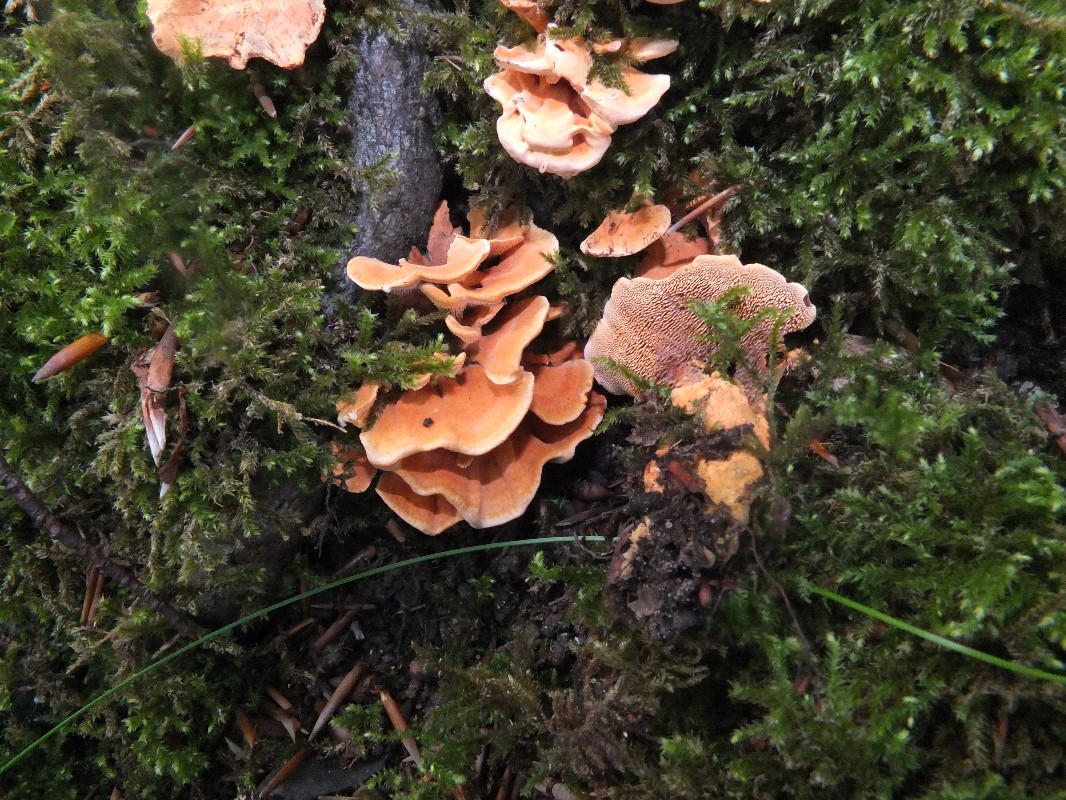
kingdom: Fungi
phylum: Basidiomycota
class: Agaricomycetes
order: Thelephorales
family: Bankeraceae
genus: Hydnellum
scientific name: Hydnellum auratile
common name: teglrød korkpigsvamp
